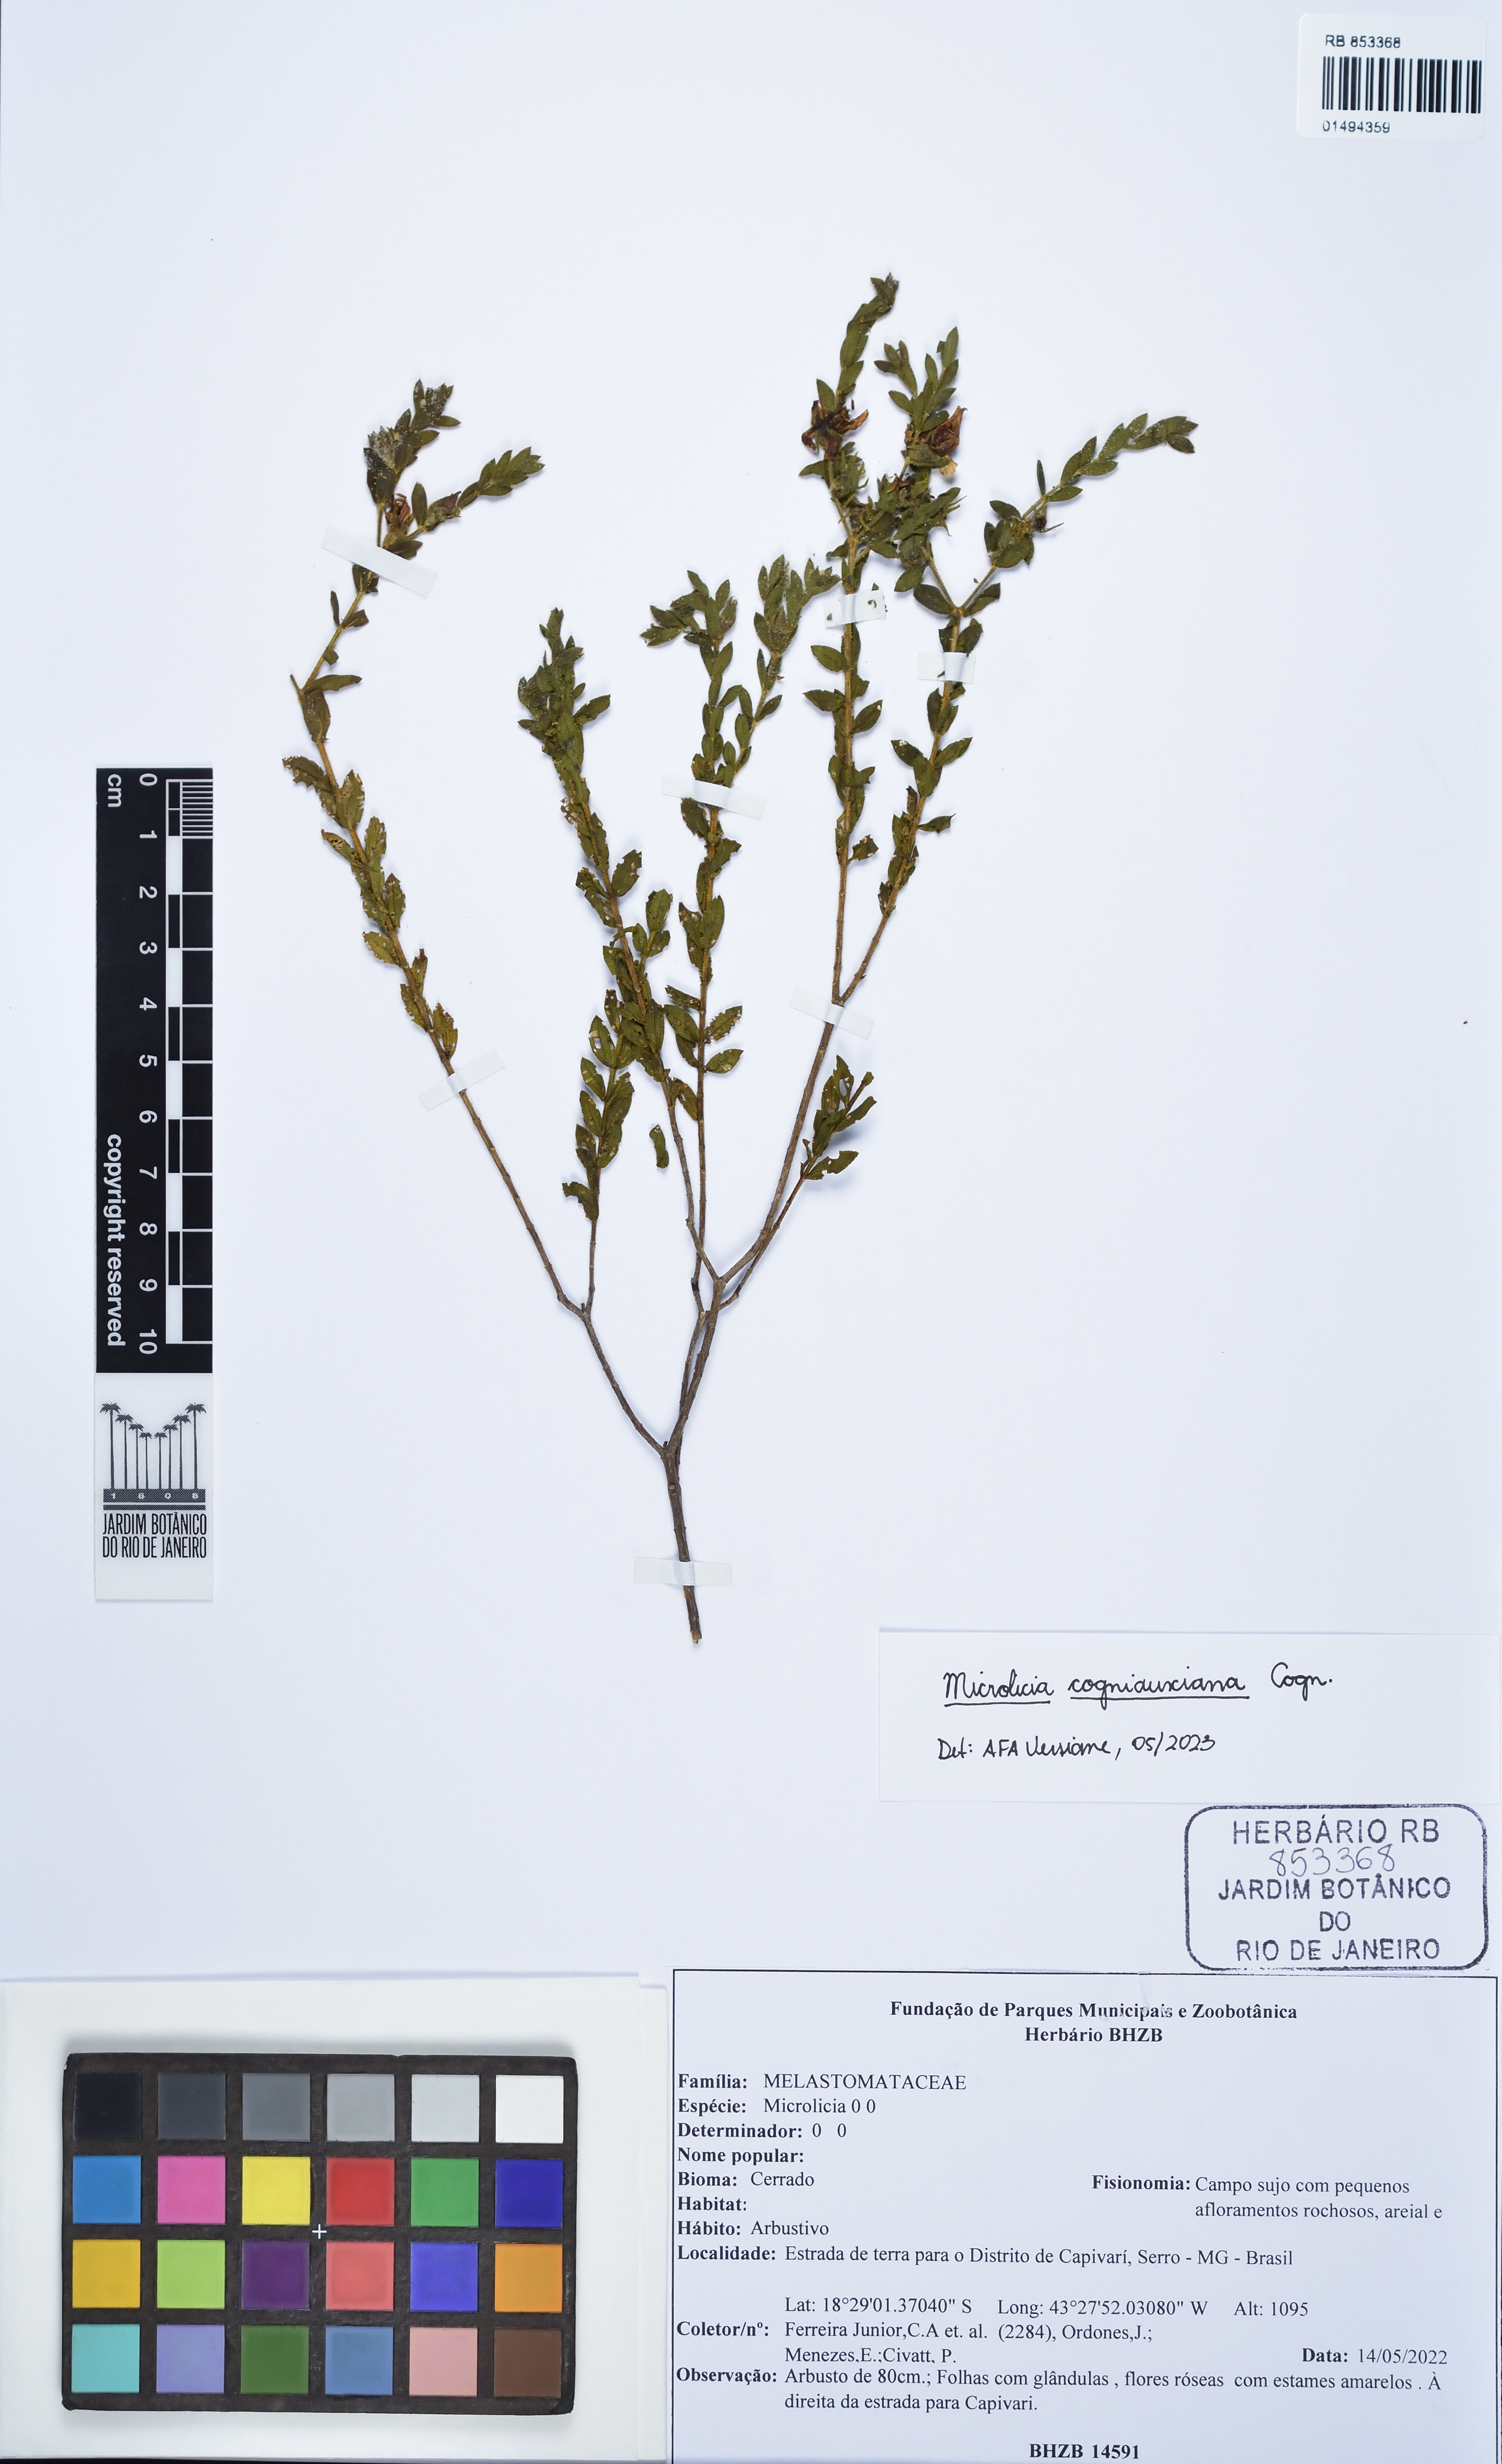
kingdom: Plantae
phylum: Tracheophyta
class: Magnoliopsida
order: Myrtales
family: Melastomataceae
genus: Microlicia
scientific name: Microlicia cogniauxiana
